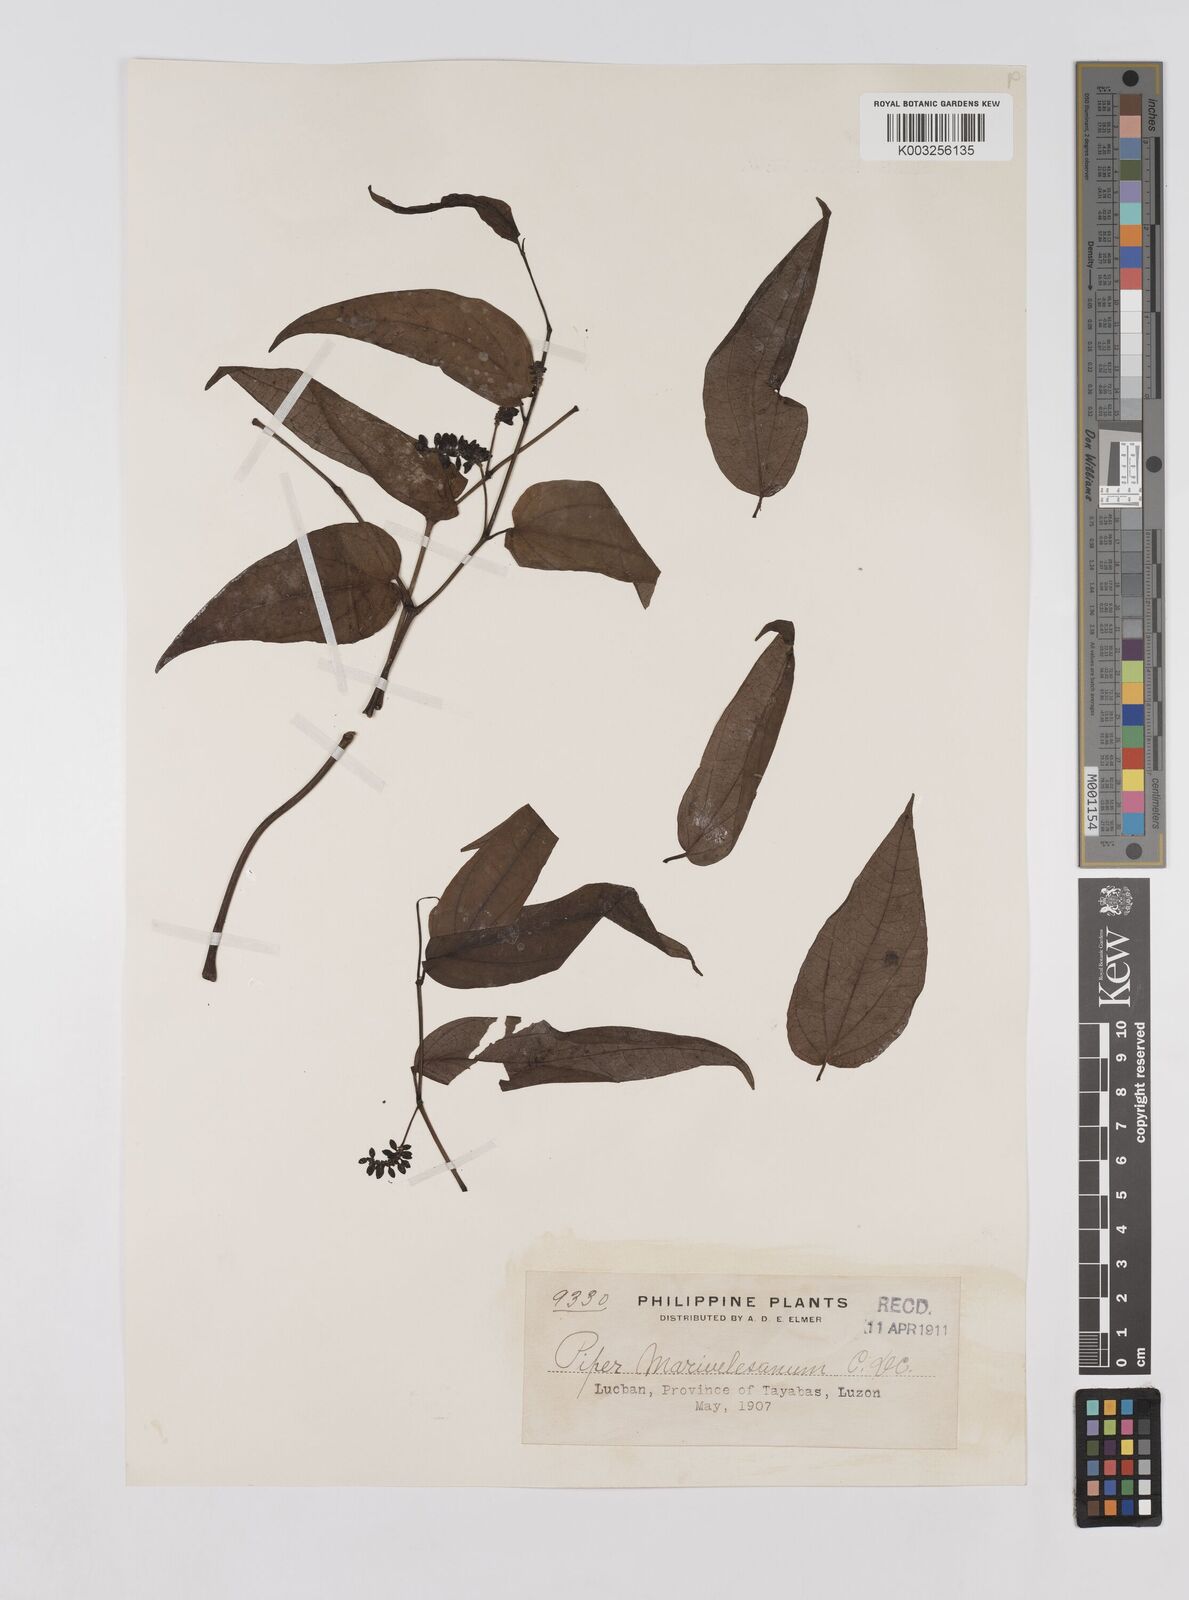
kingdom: Plantae
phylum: Tracheophyta
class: Magnoliopsida
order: Piperales
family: Piperaceae
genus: Piper
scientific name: Piper lanatum
